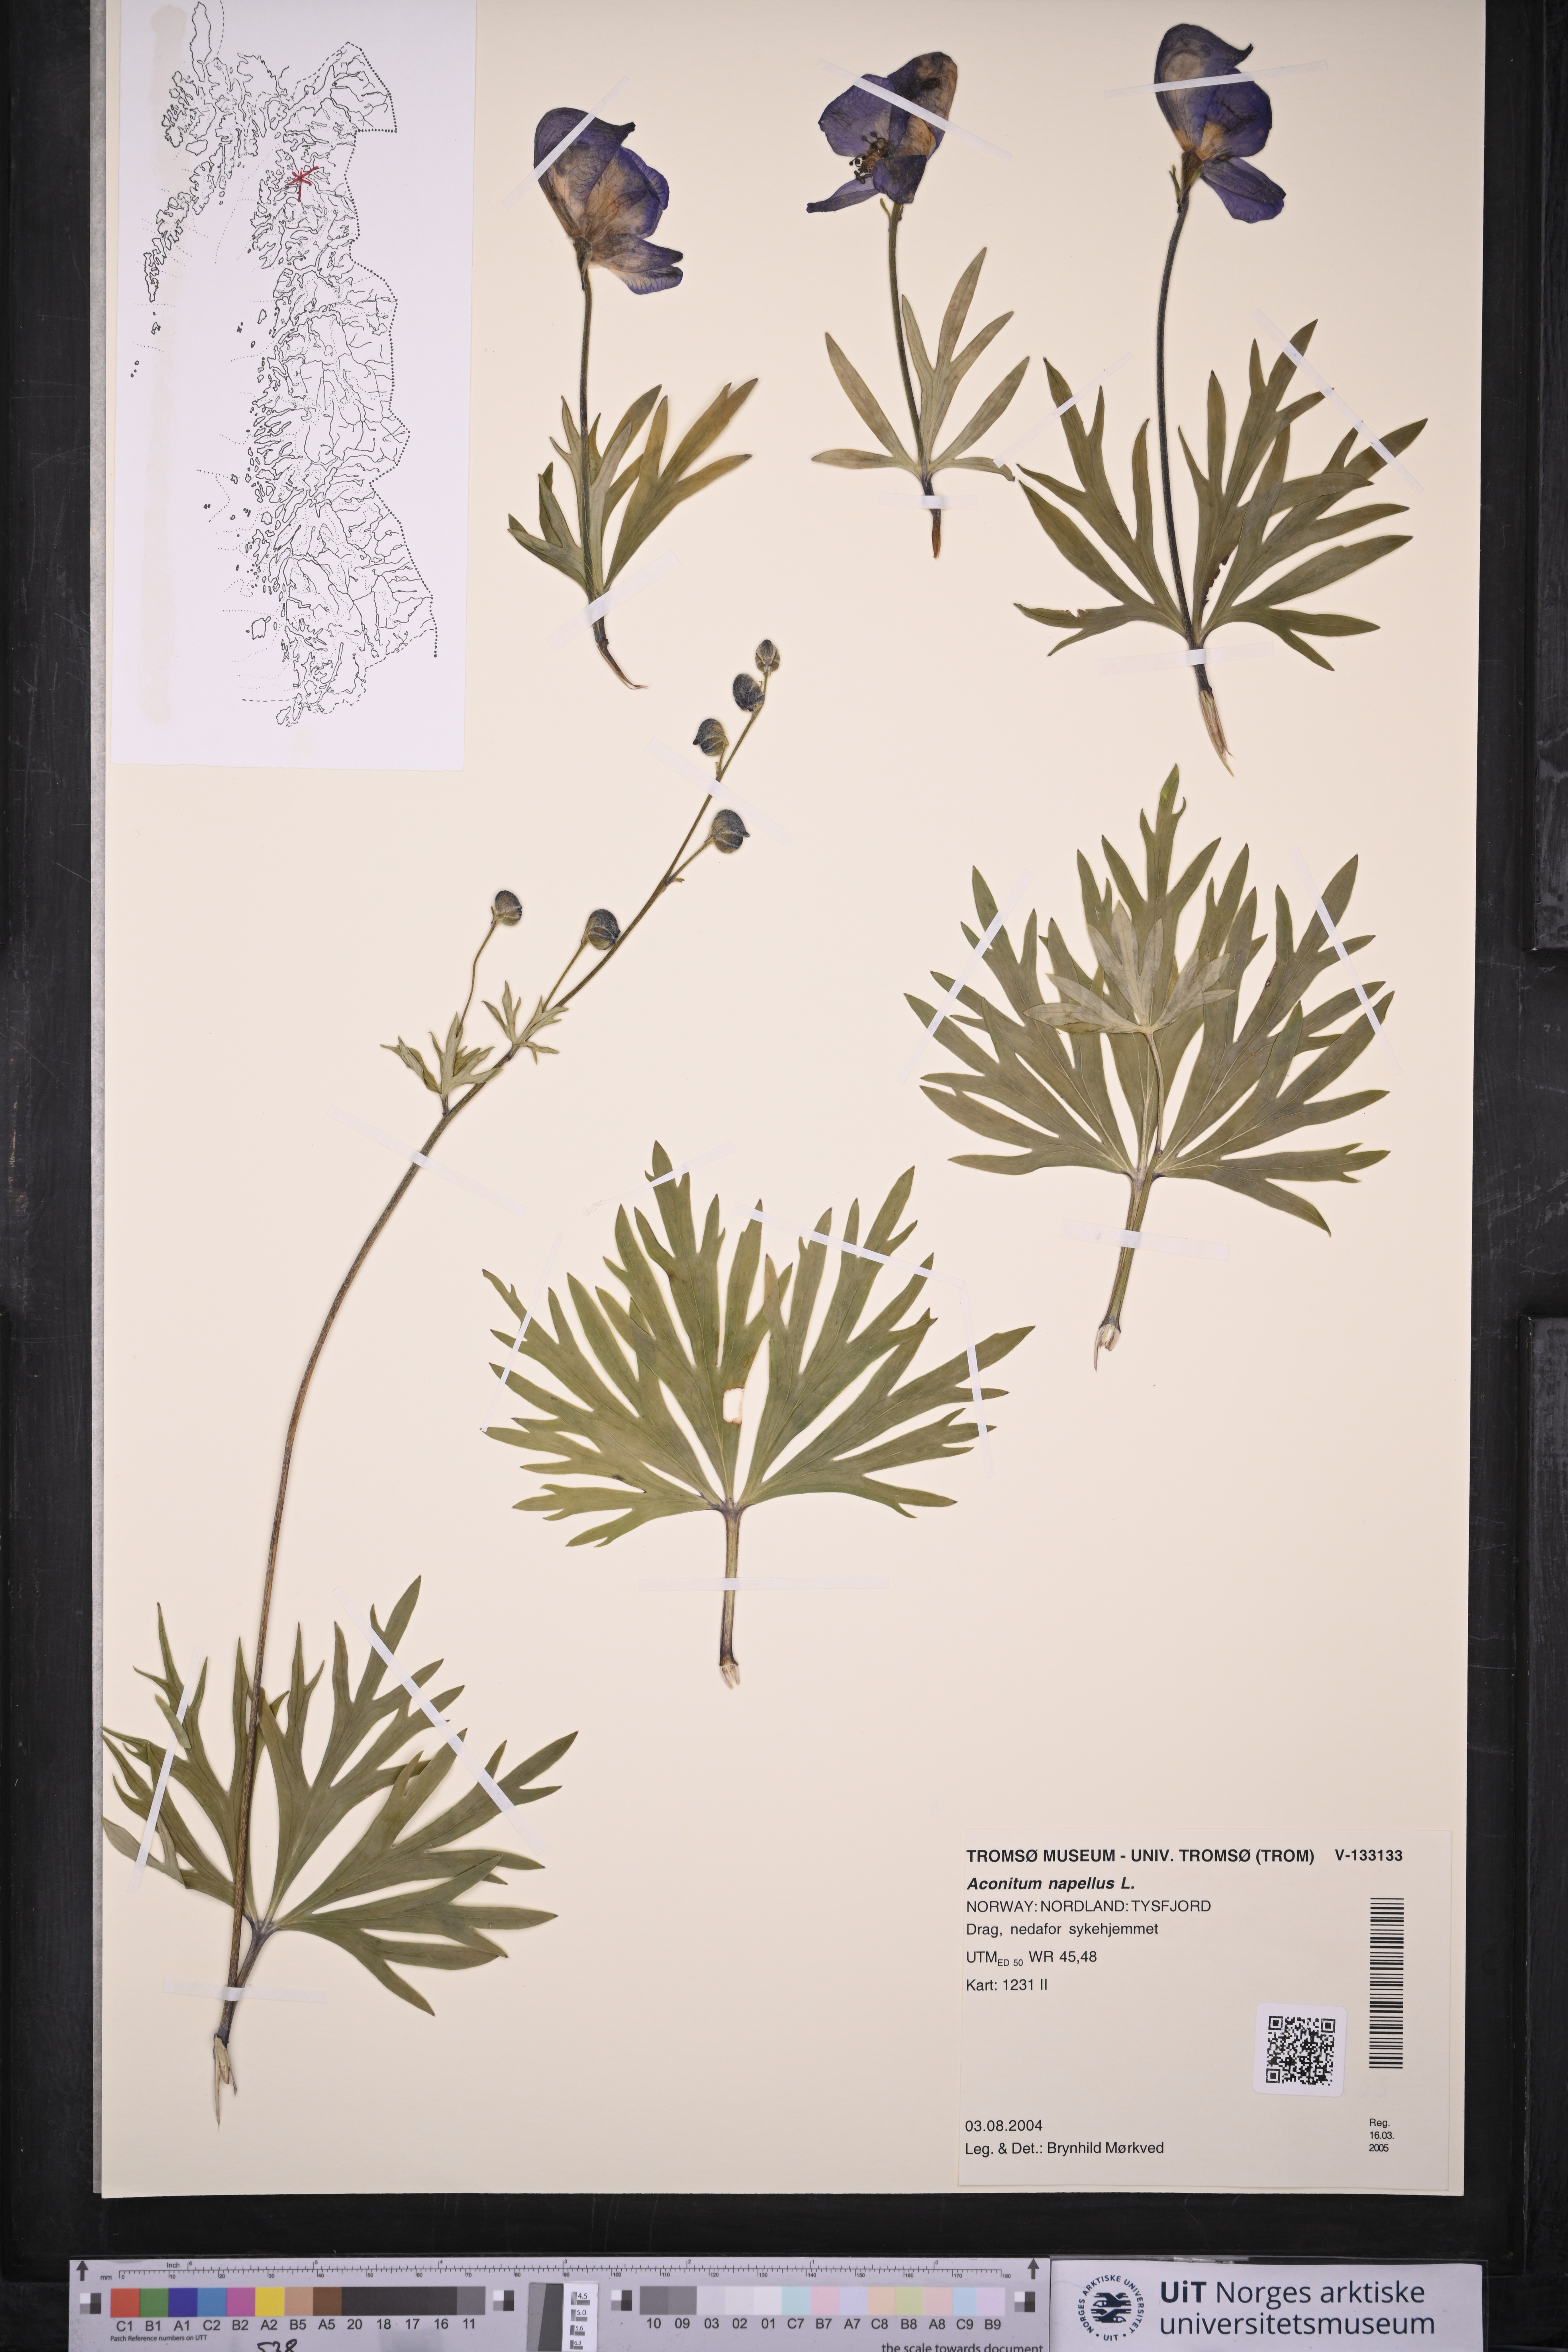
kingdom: Plantae
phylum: Tracheophyta
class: Magnoliopsida
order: Ranunculales
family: Ranunculaceae
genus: Aconitum
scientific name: Aconitum napellus
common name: Garden monkshood
